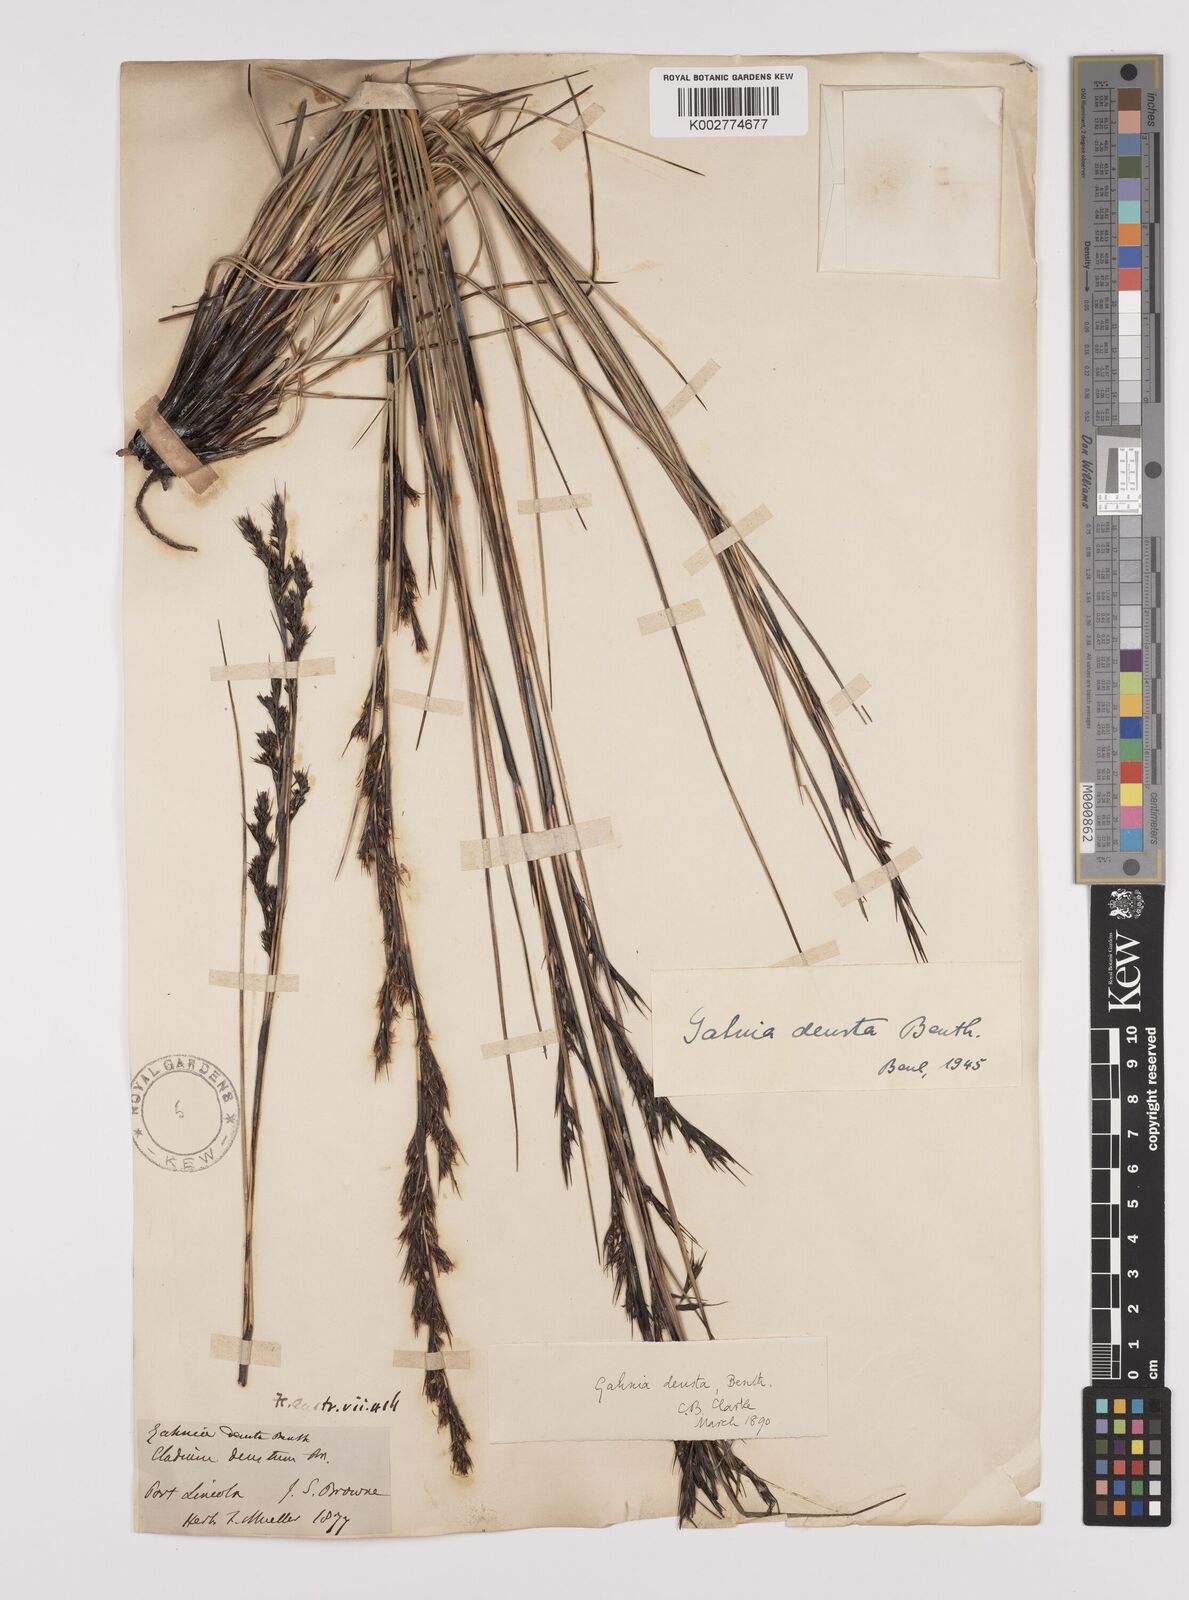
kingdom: Plantae
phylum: Tracheophyta
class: Liliopsida
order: Poales
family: Cyperaceae
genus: Gahnia
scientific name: Gahnia deusta
